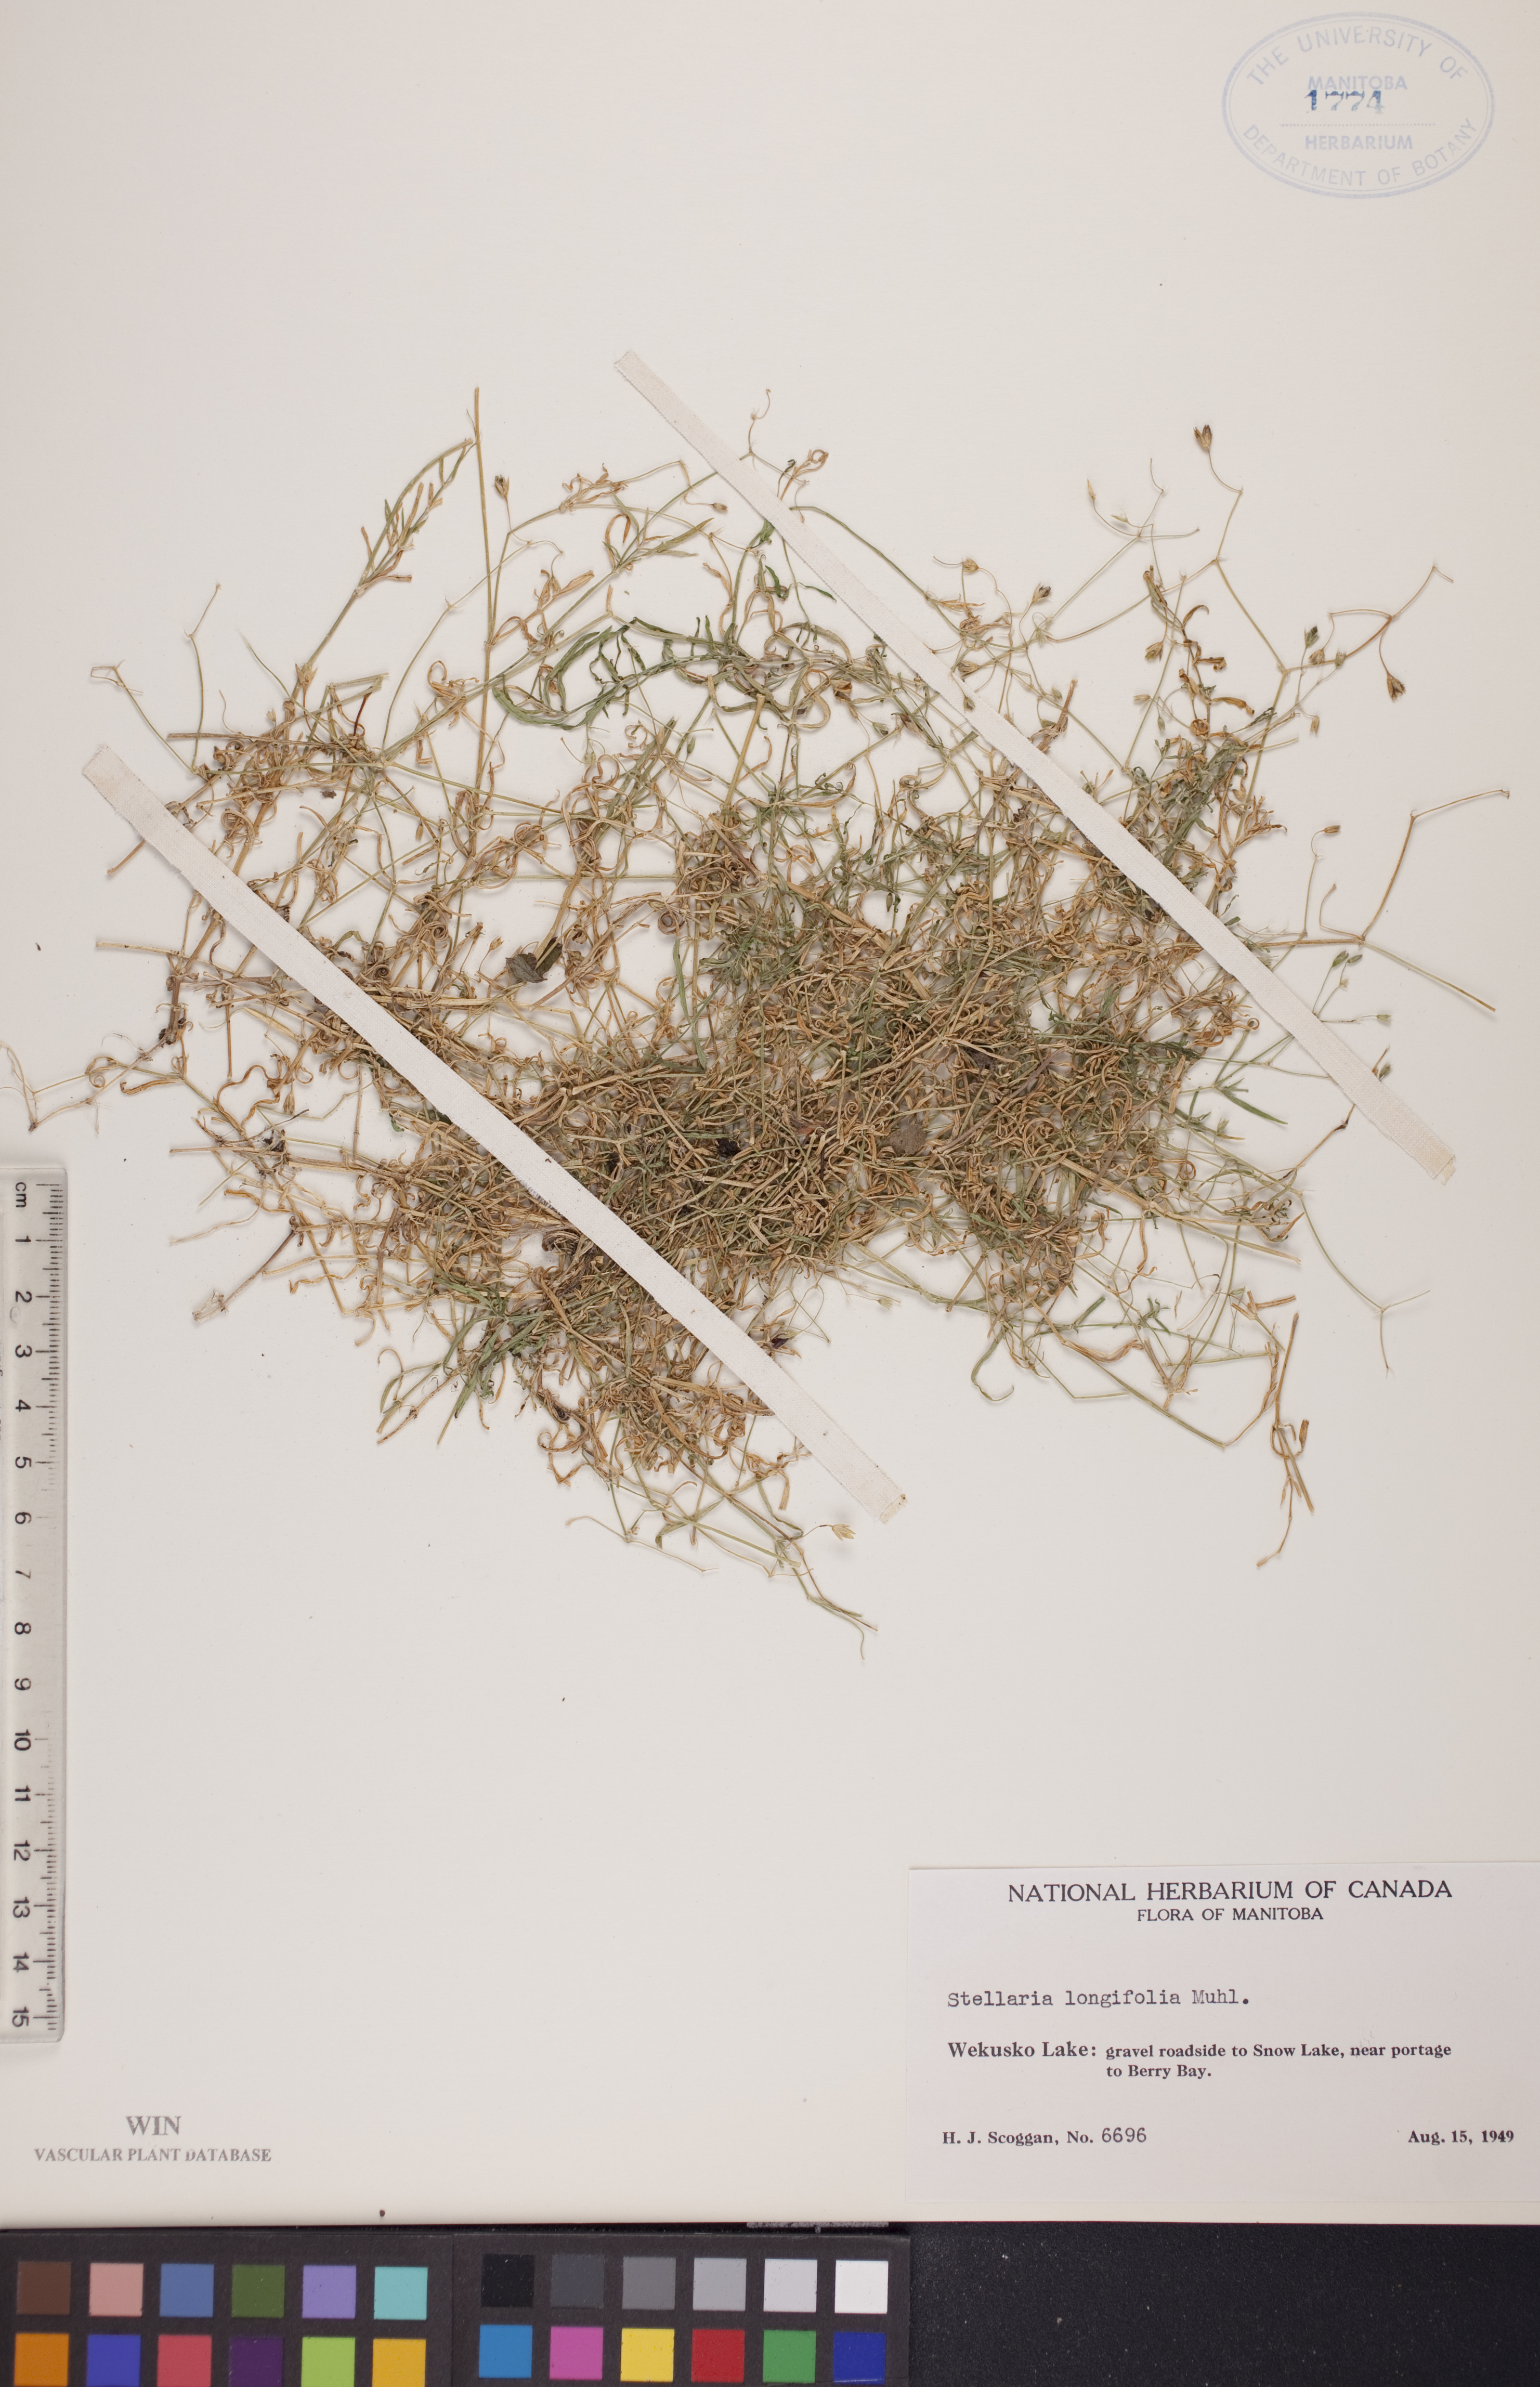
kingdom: Plantae
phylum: Tracheophyta
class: Magnoliopsida
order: Caryophyllales
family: Caryophyllaceae
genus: Stellaria
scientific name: Stellaria longifolia
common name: Long-leaved chickweed
